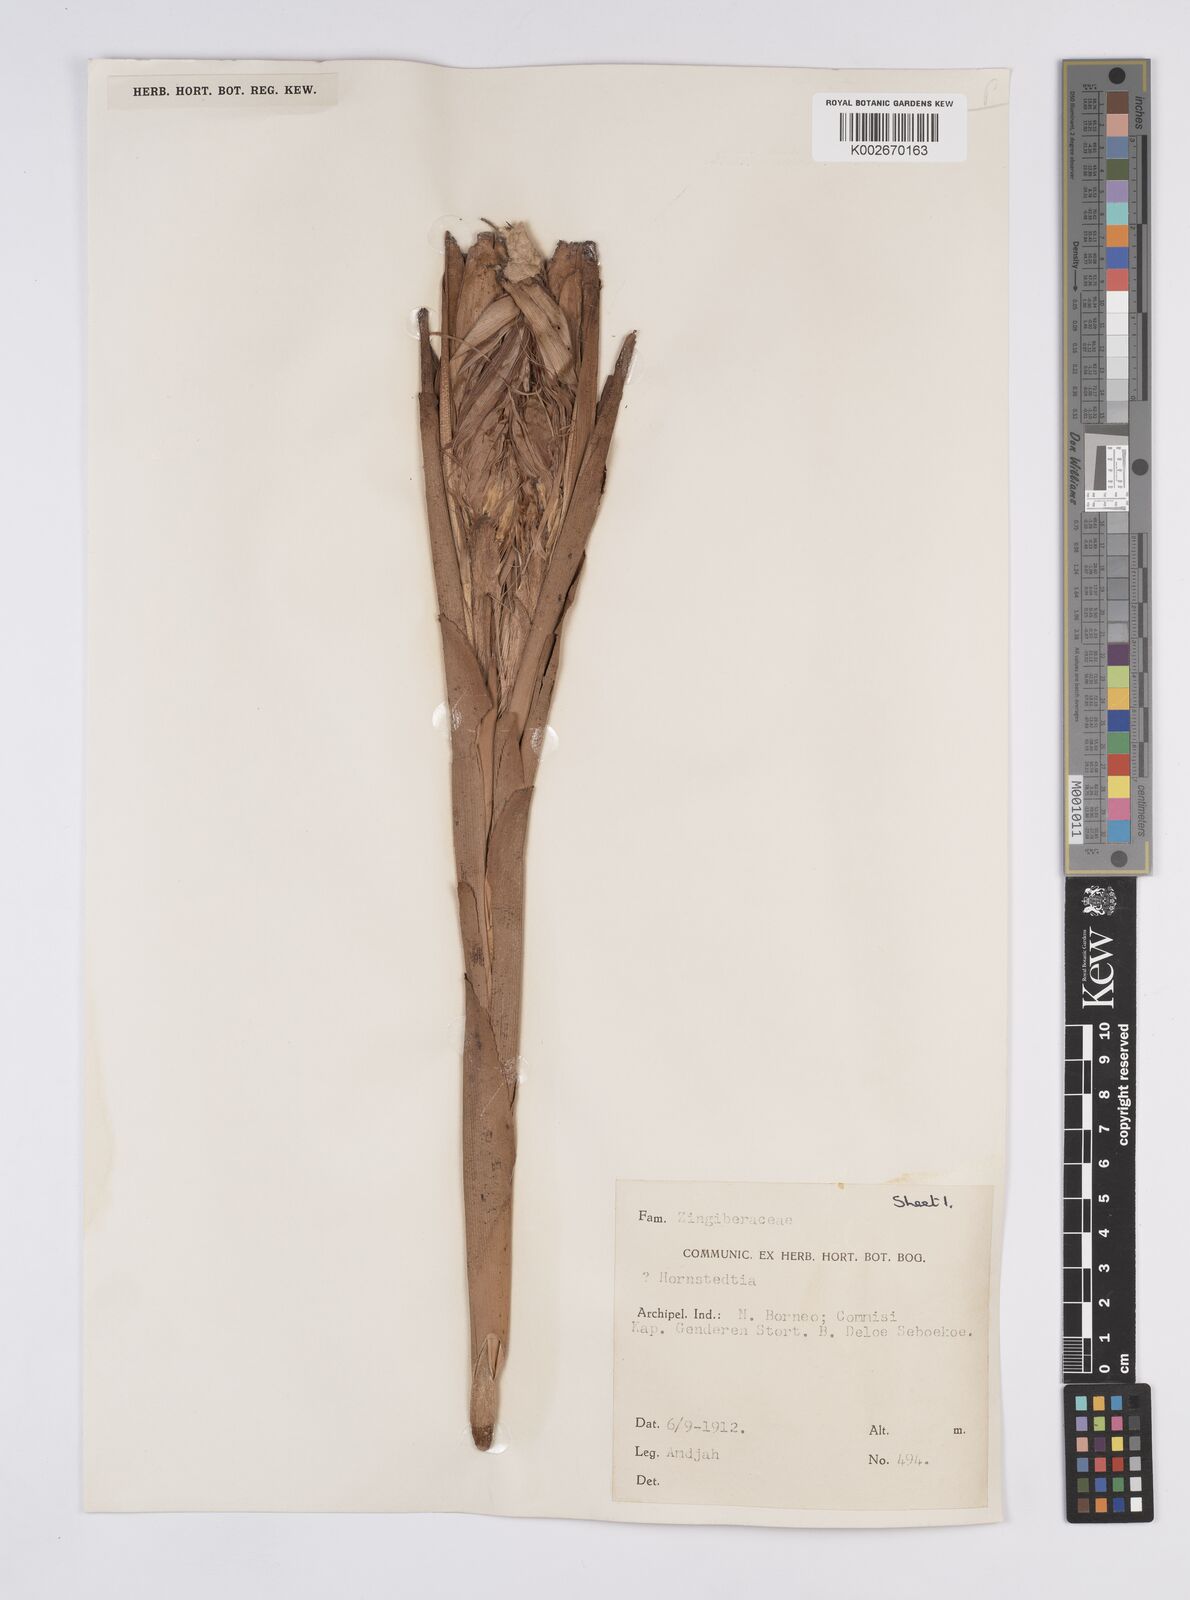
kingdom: Plantae
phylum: Tracheophyta
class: Liliopsida
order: Zingiberales
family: Zingiberaceae
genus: Hornstedtia
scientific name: Hornstedtia havilandii
